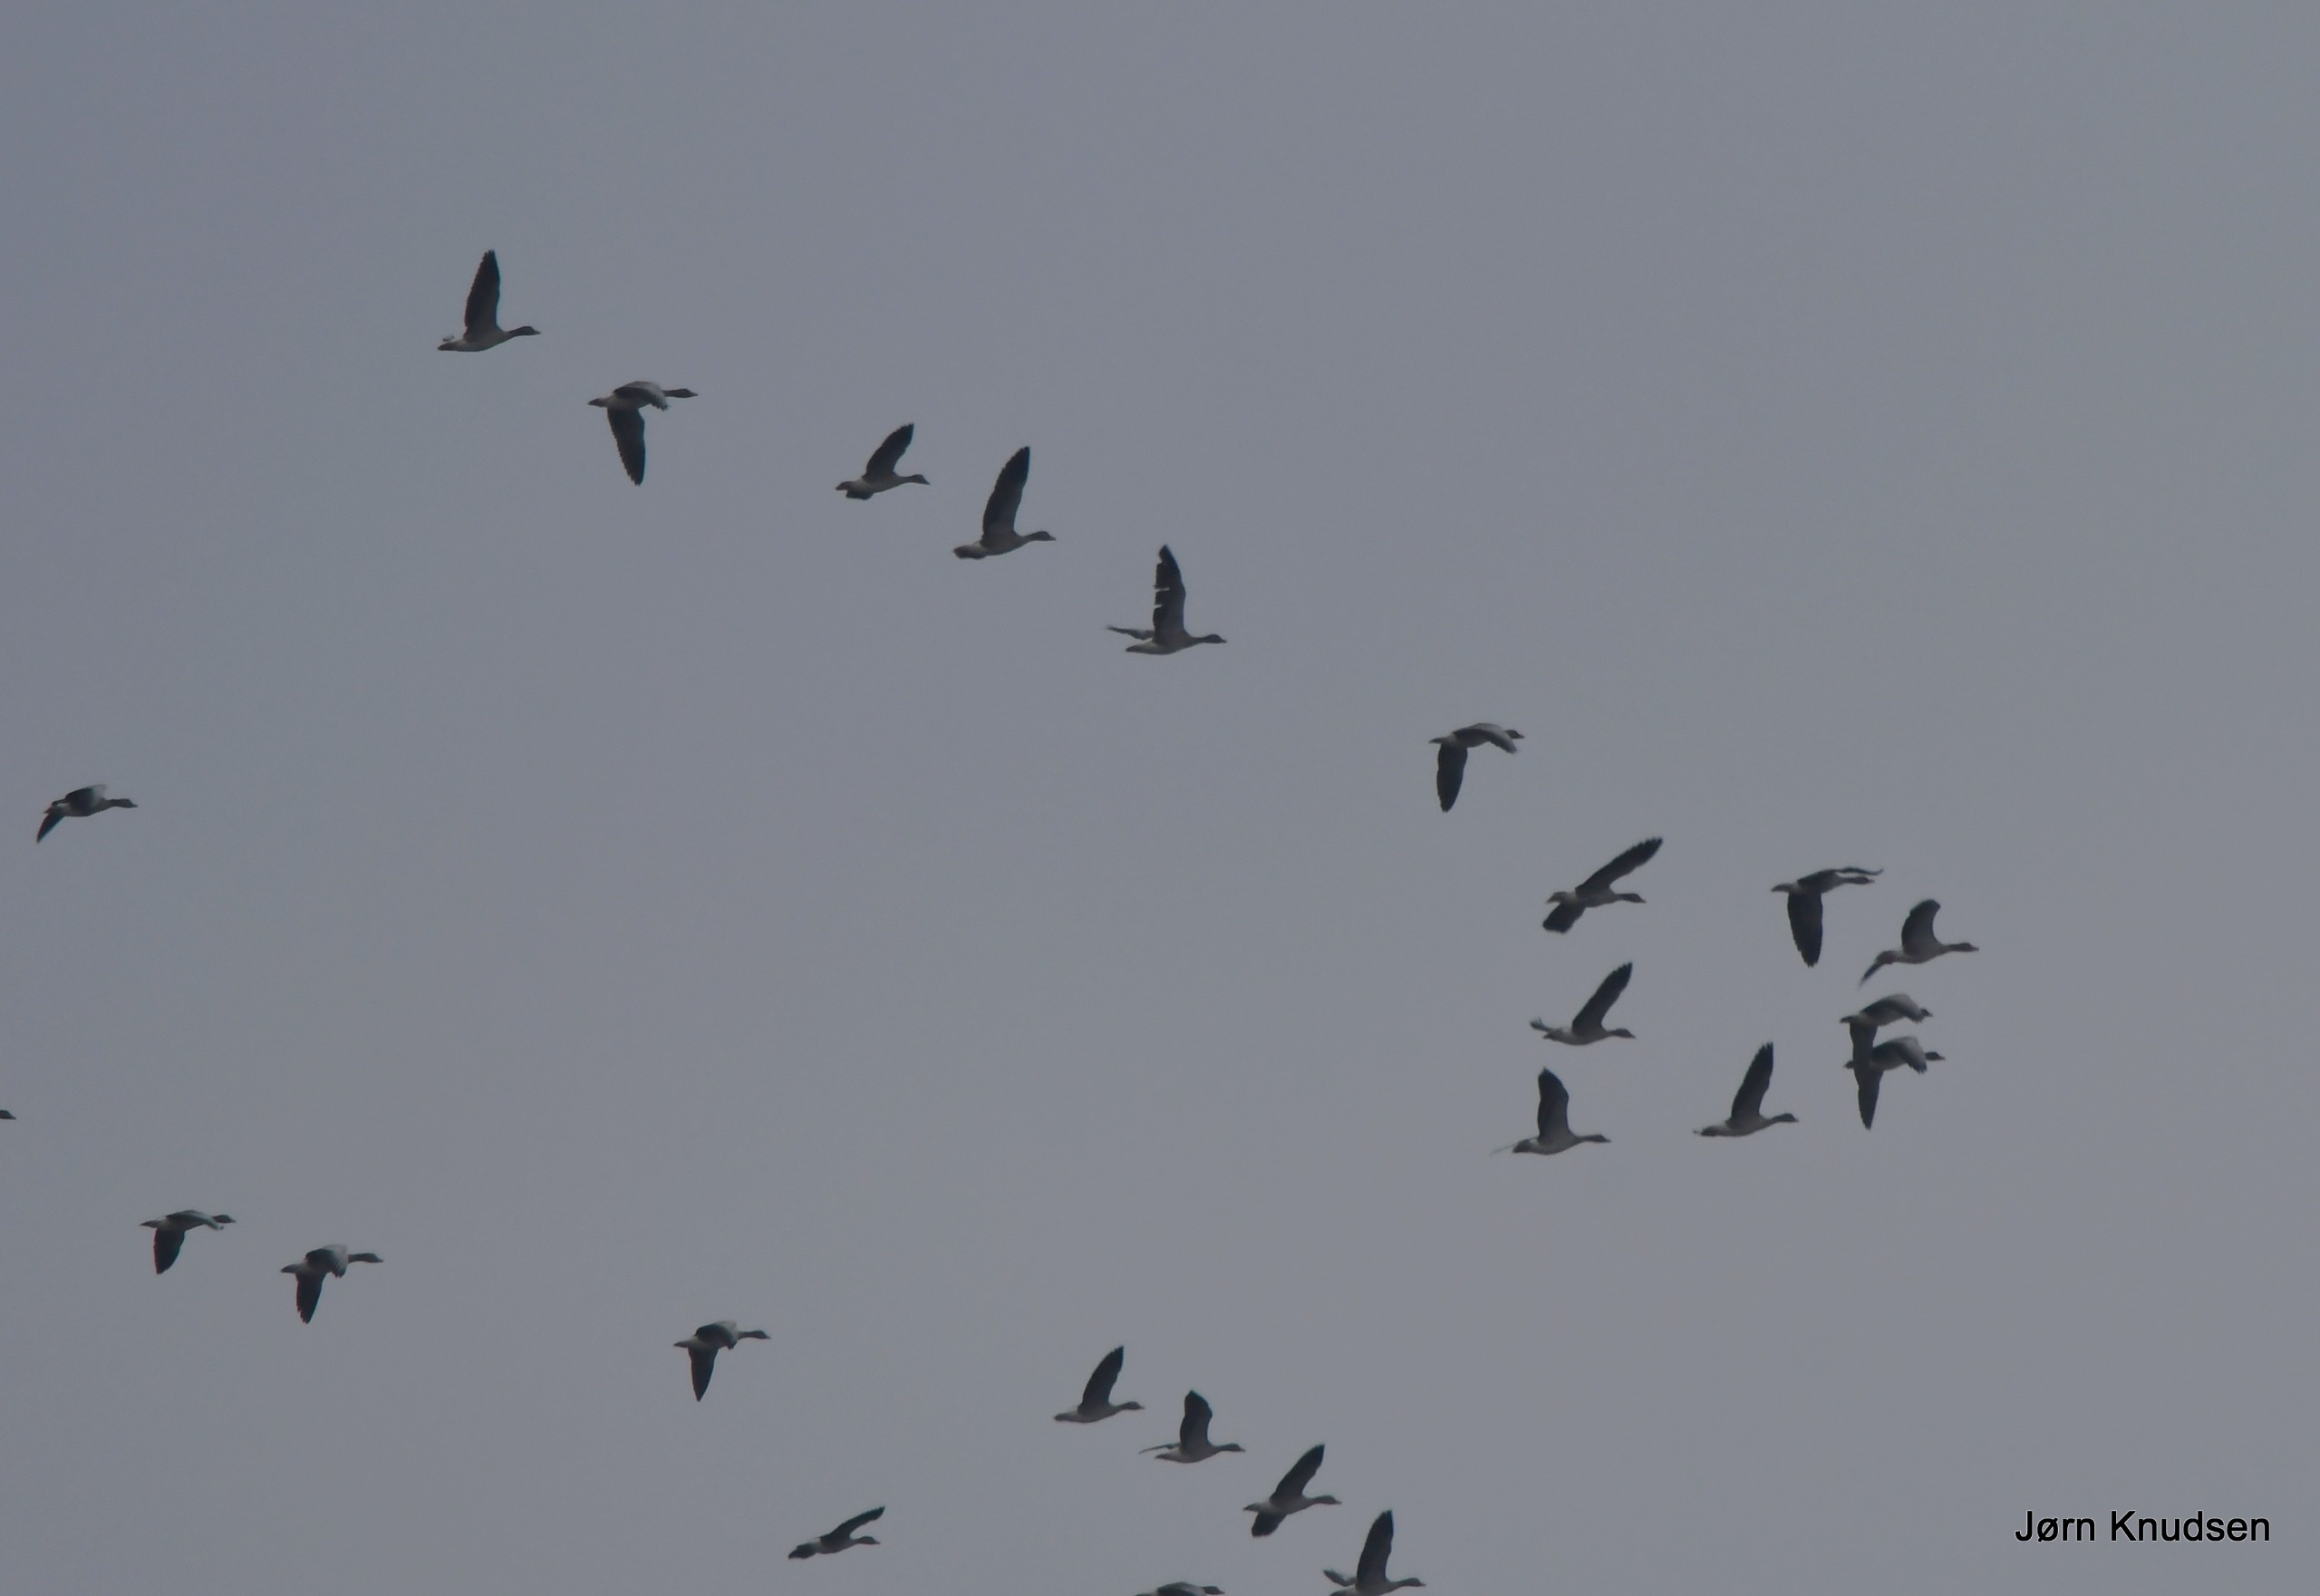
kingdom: Animalia
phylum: Chordata
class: Aves
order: Anseriformes
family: Anatidae
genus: Anser
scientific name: Anser anser
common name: Grågås
